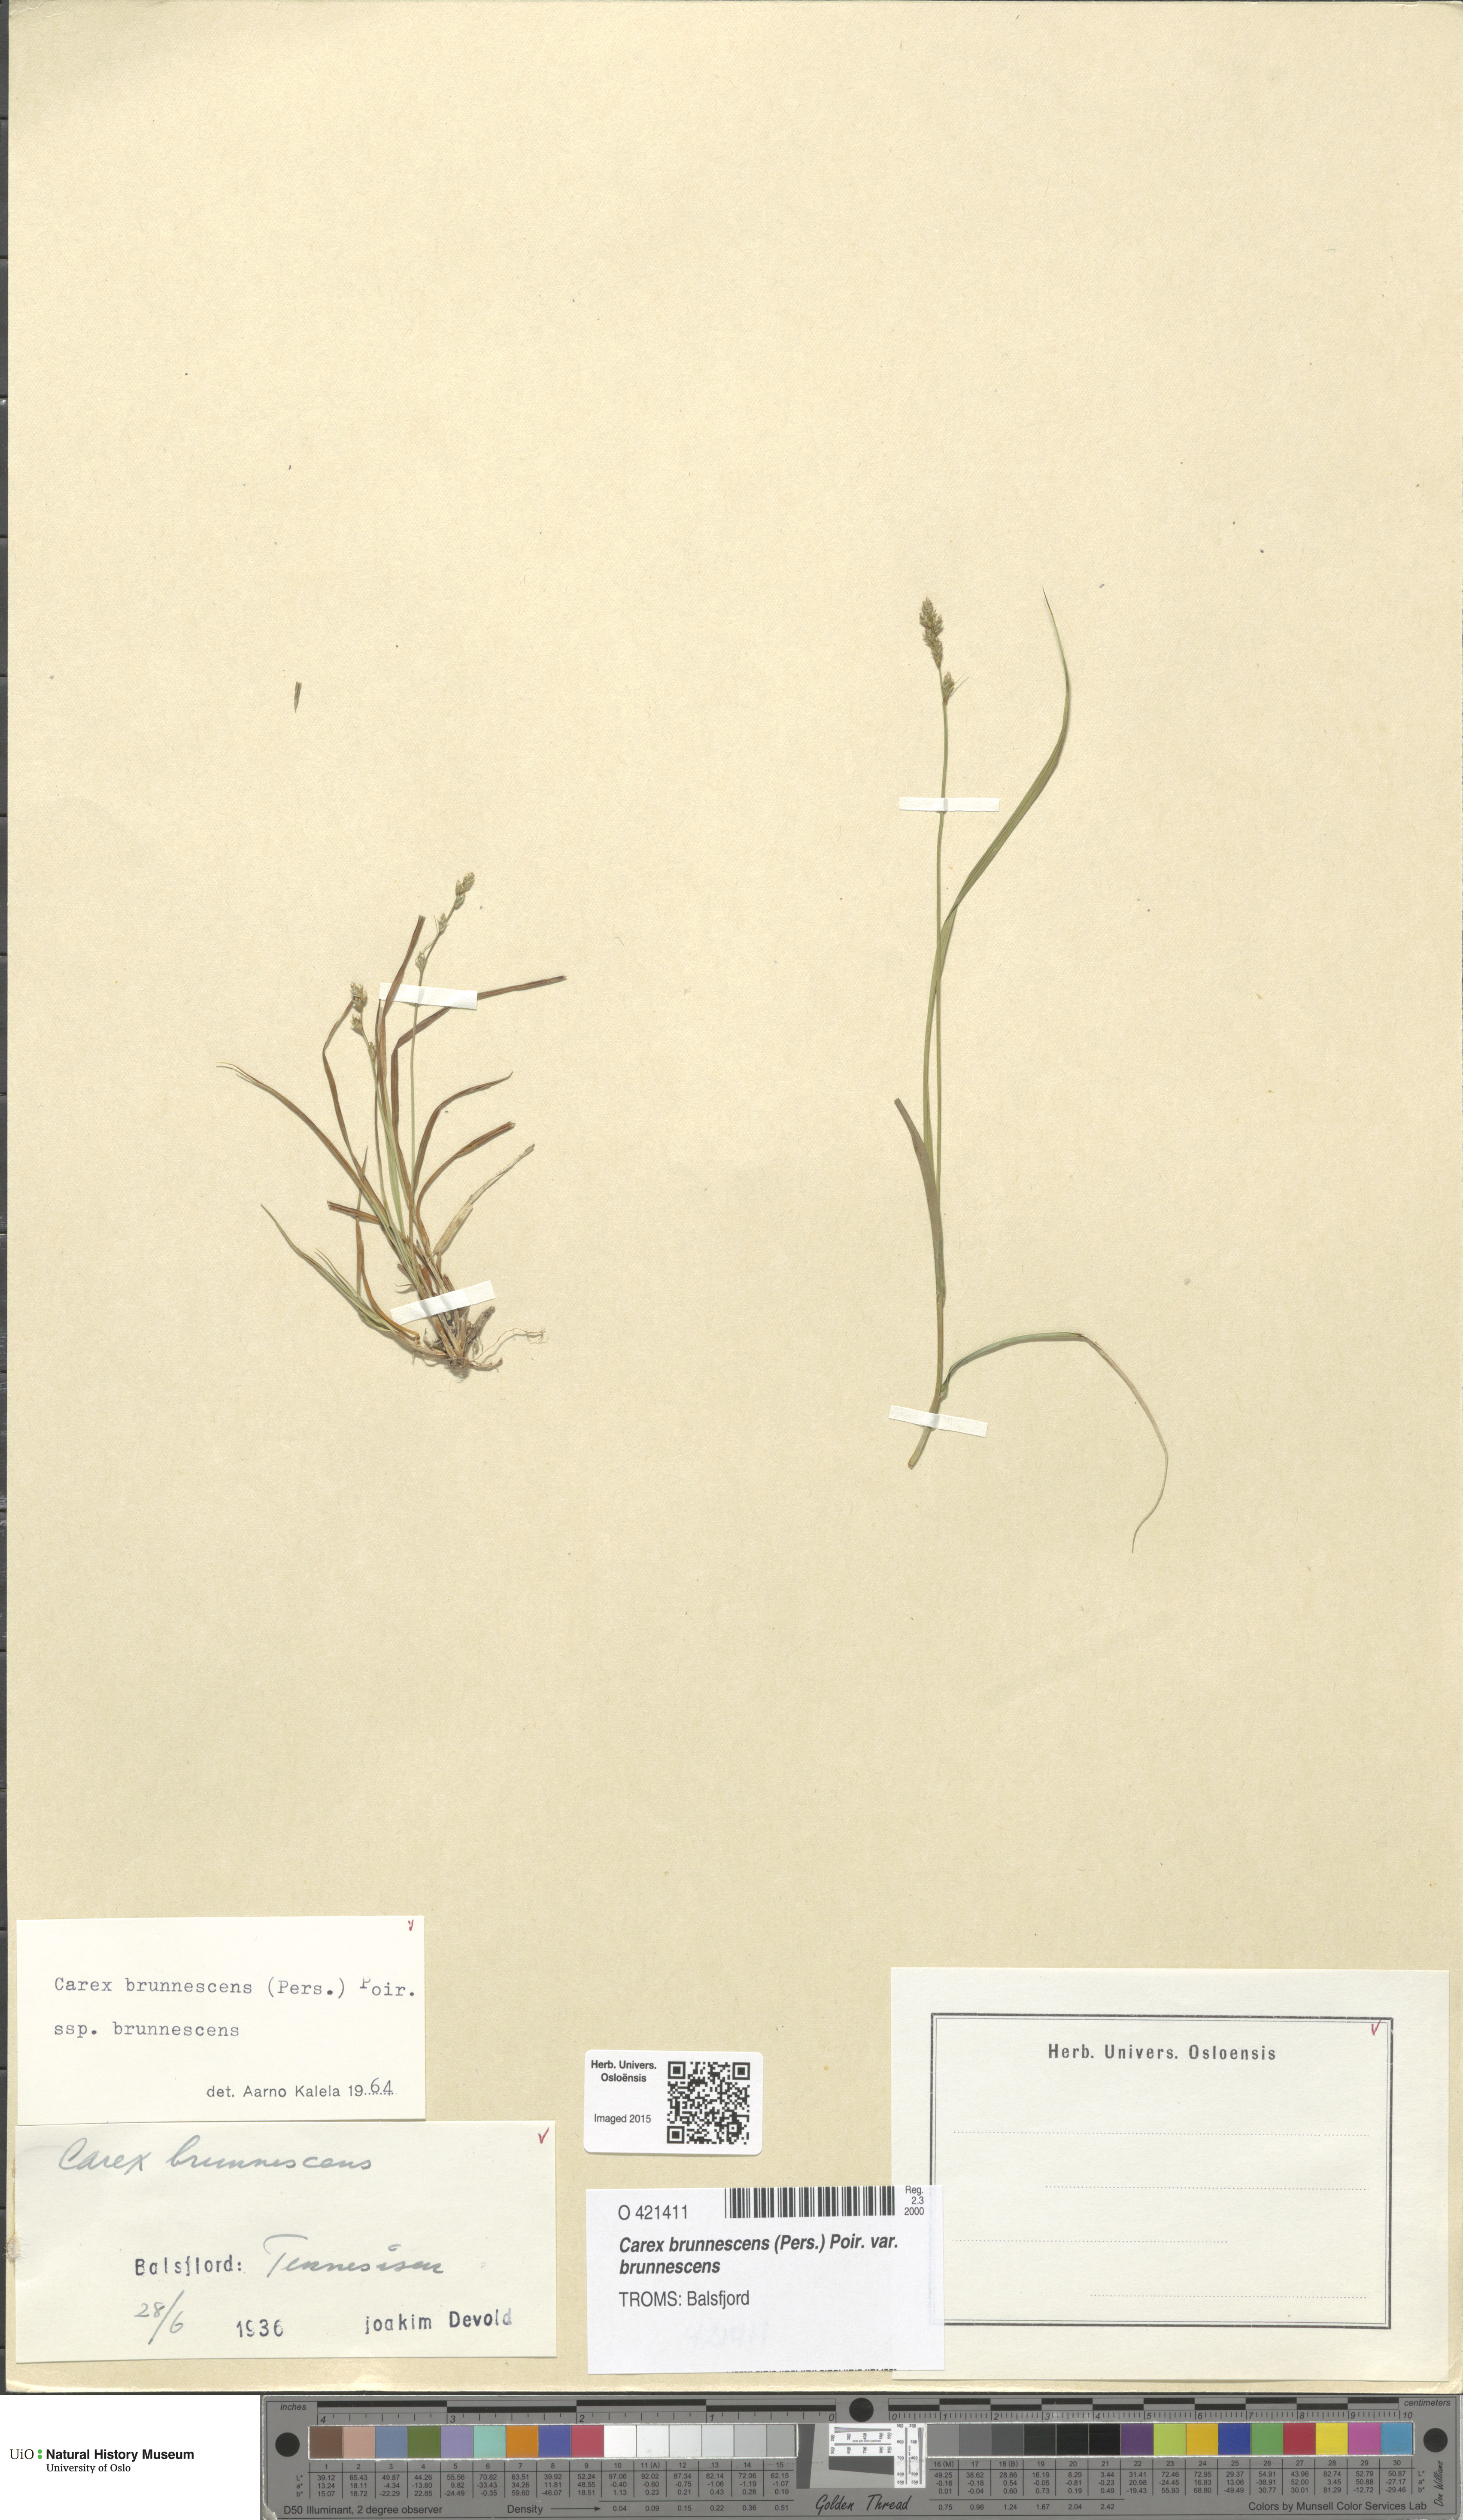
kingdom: Plantae
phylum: Tracheophyta
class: Liliopsida
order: Poales
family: Cyperaceae
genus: Carex
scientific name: Carex brunnescens
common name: Brown sedge
